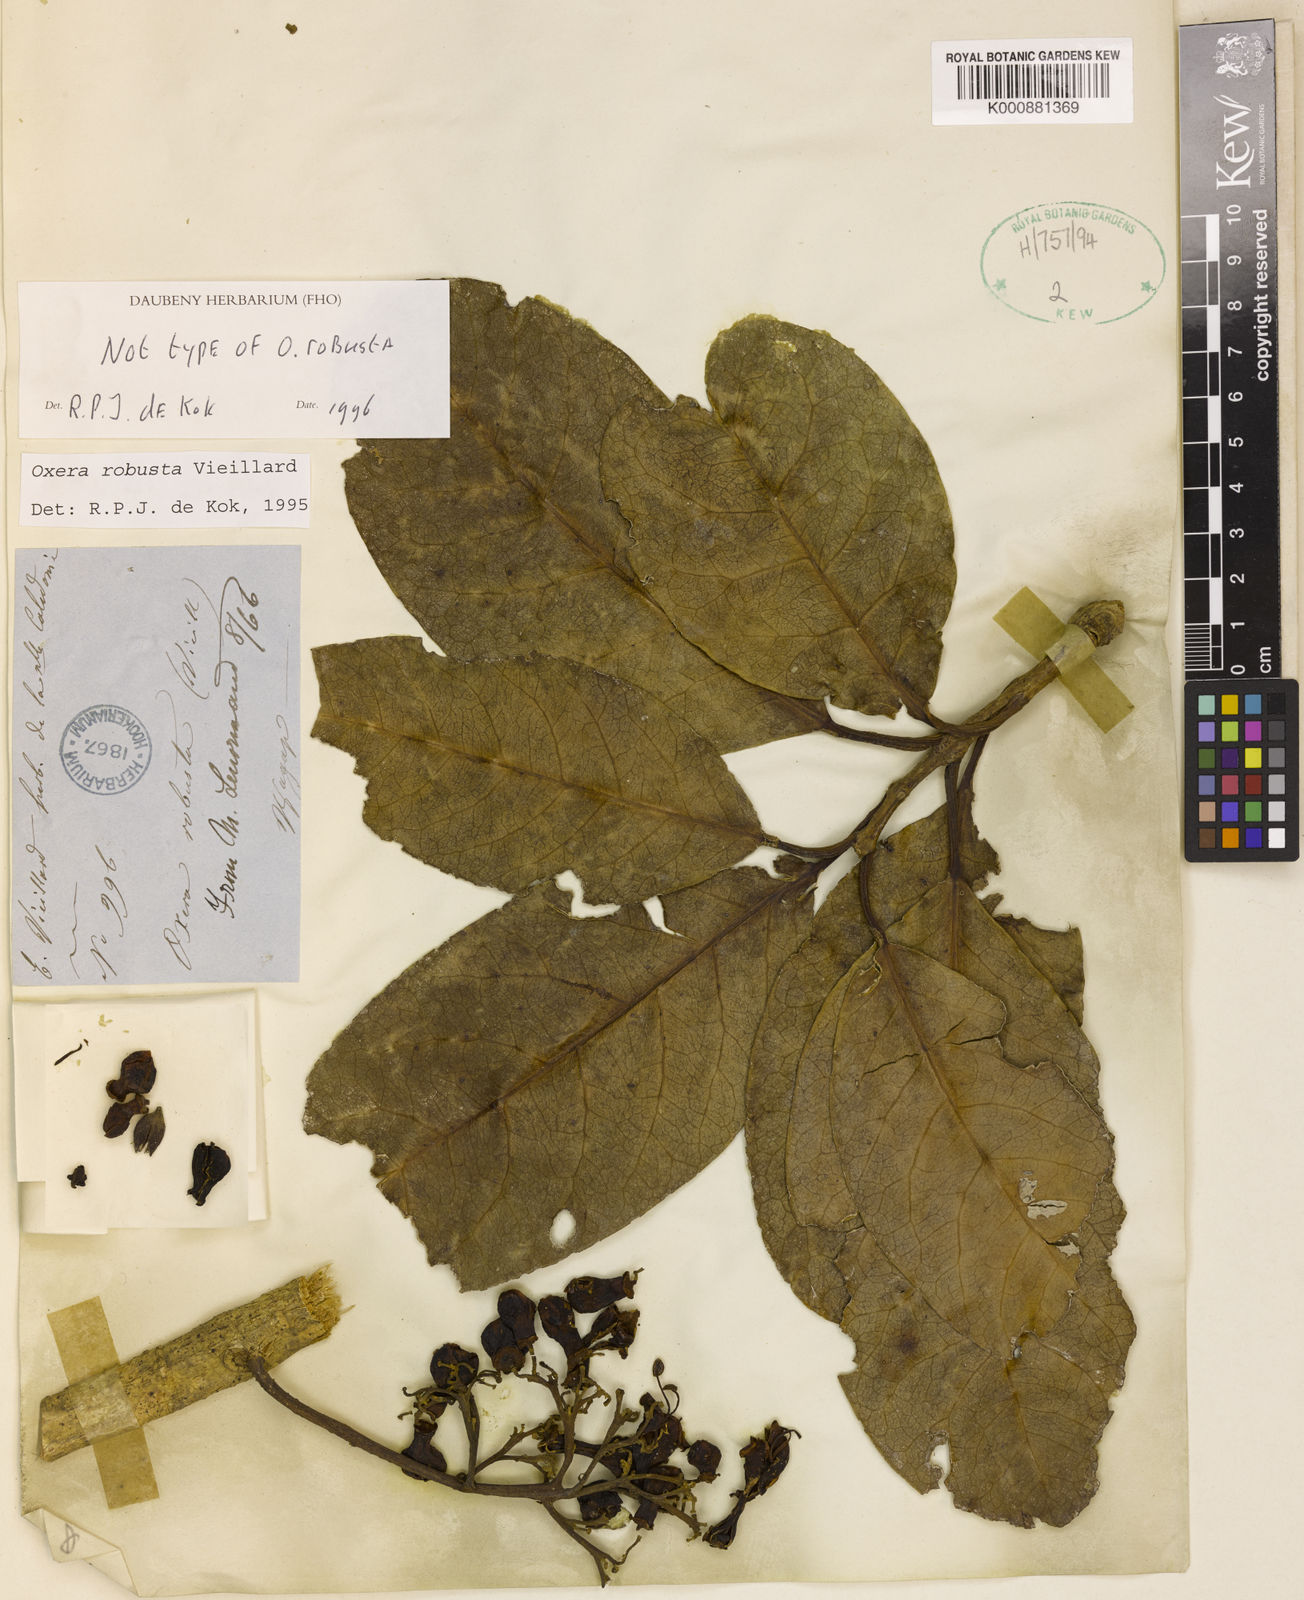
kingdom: Plantae
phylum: Tracheophyta
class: Magnoliopsida
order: Lamiales
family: Lamiaceae
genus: Oxera
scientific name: Oxera robusta
